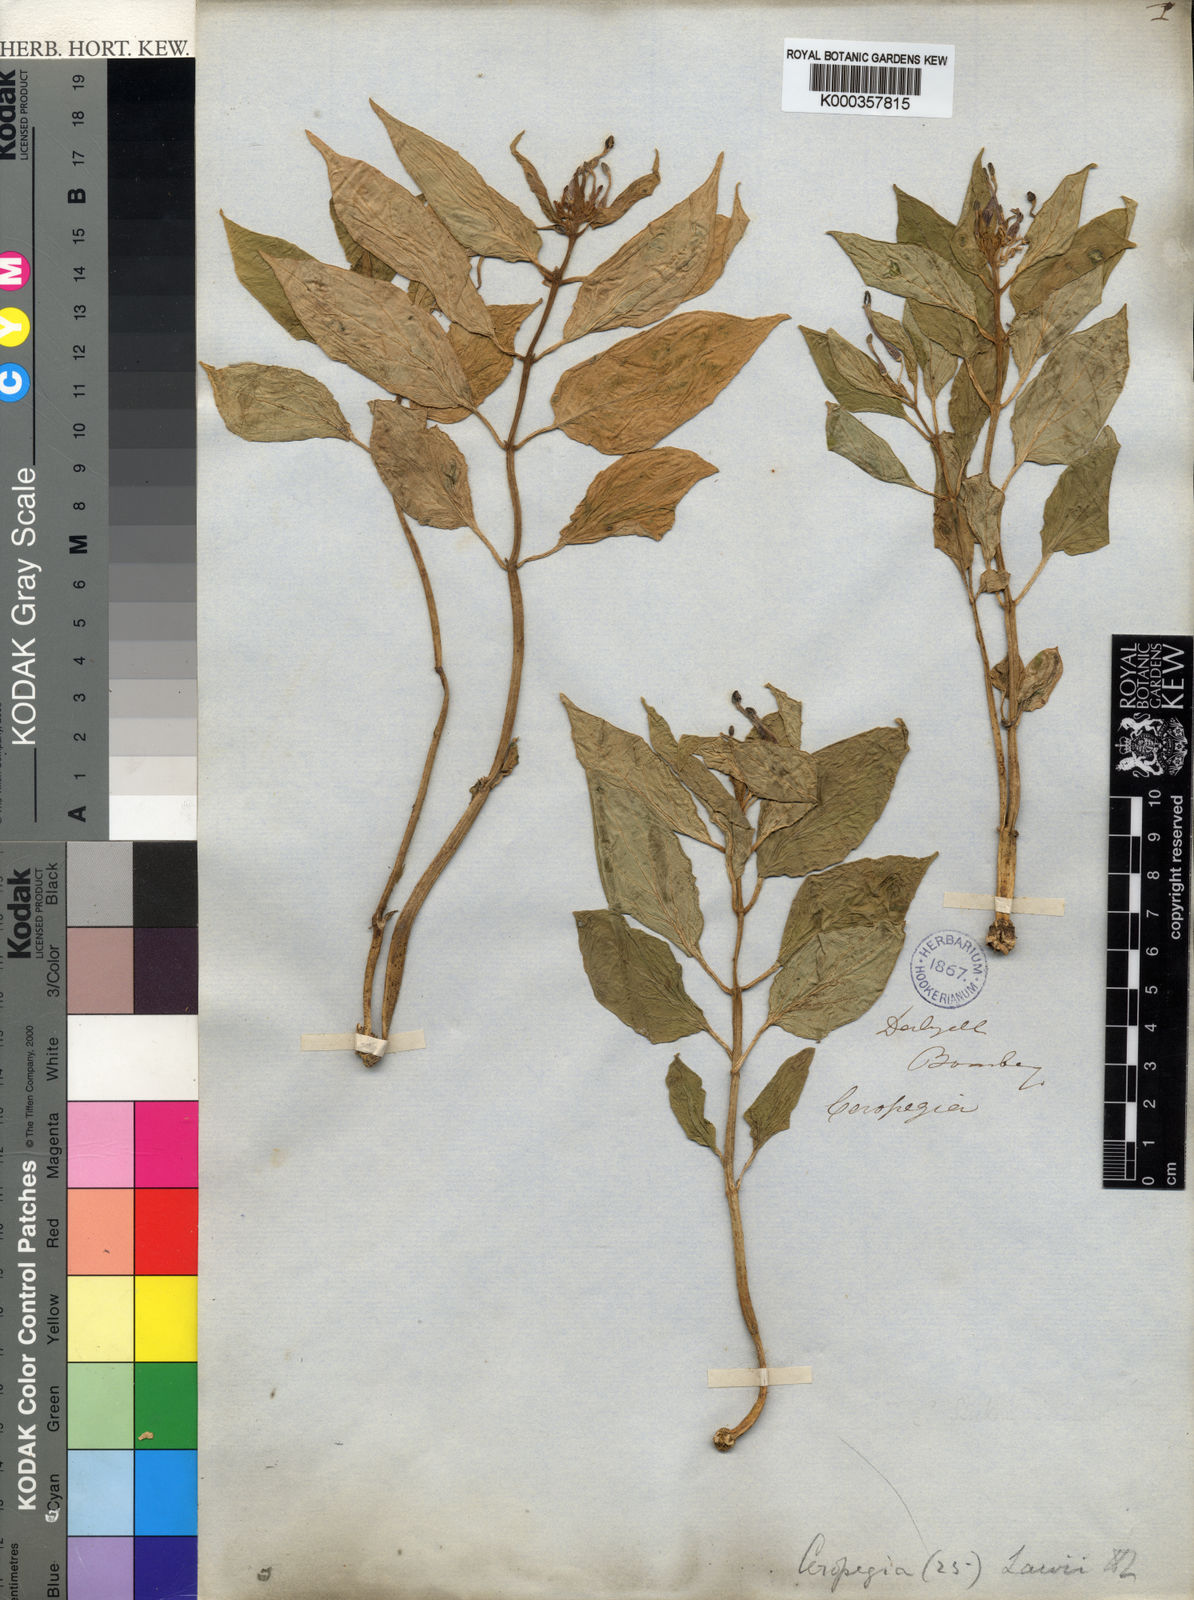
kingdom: Plantae
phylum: Tracheophyta
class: Magnoliopsida
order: Gentianales
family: Apocynaceae
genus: Ceropegia
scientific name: Ceropegia lawii
